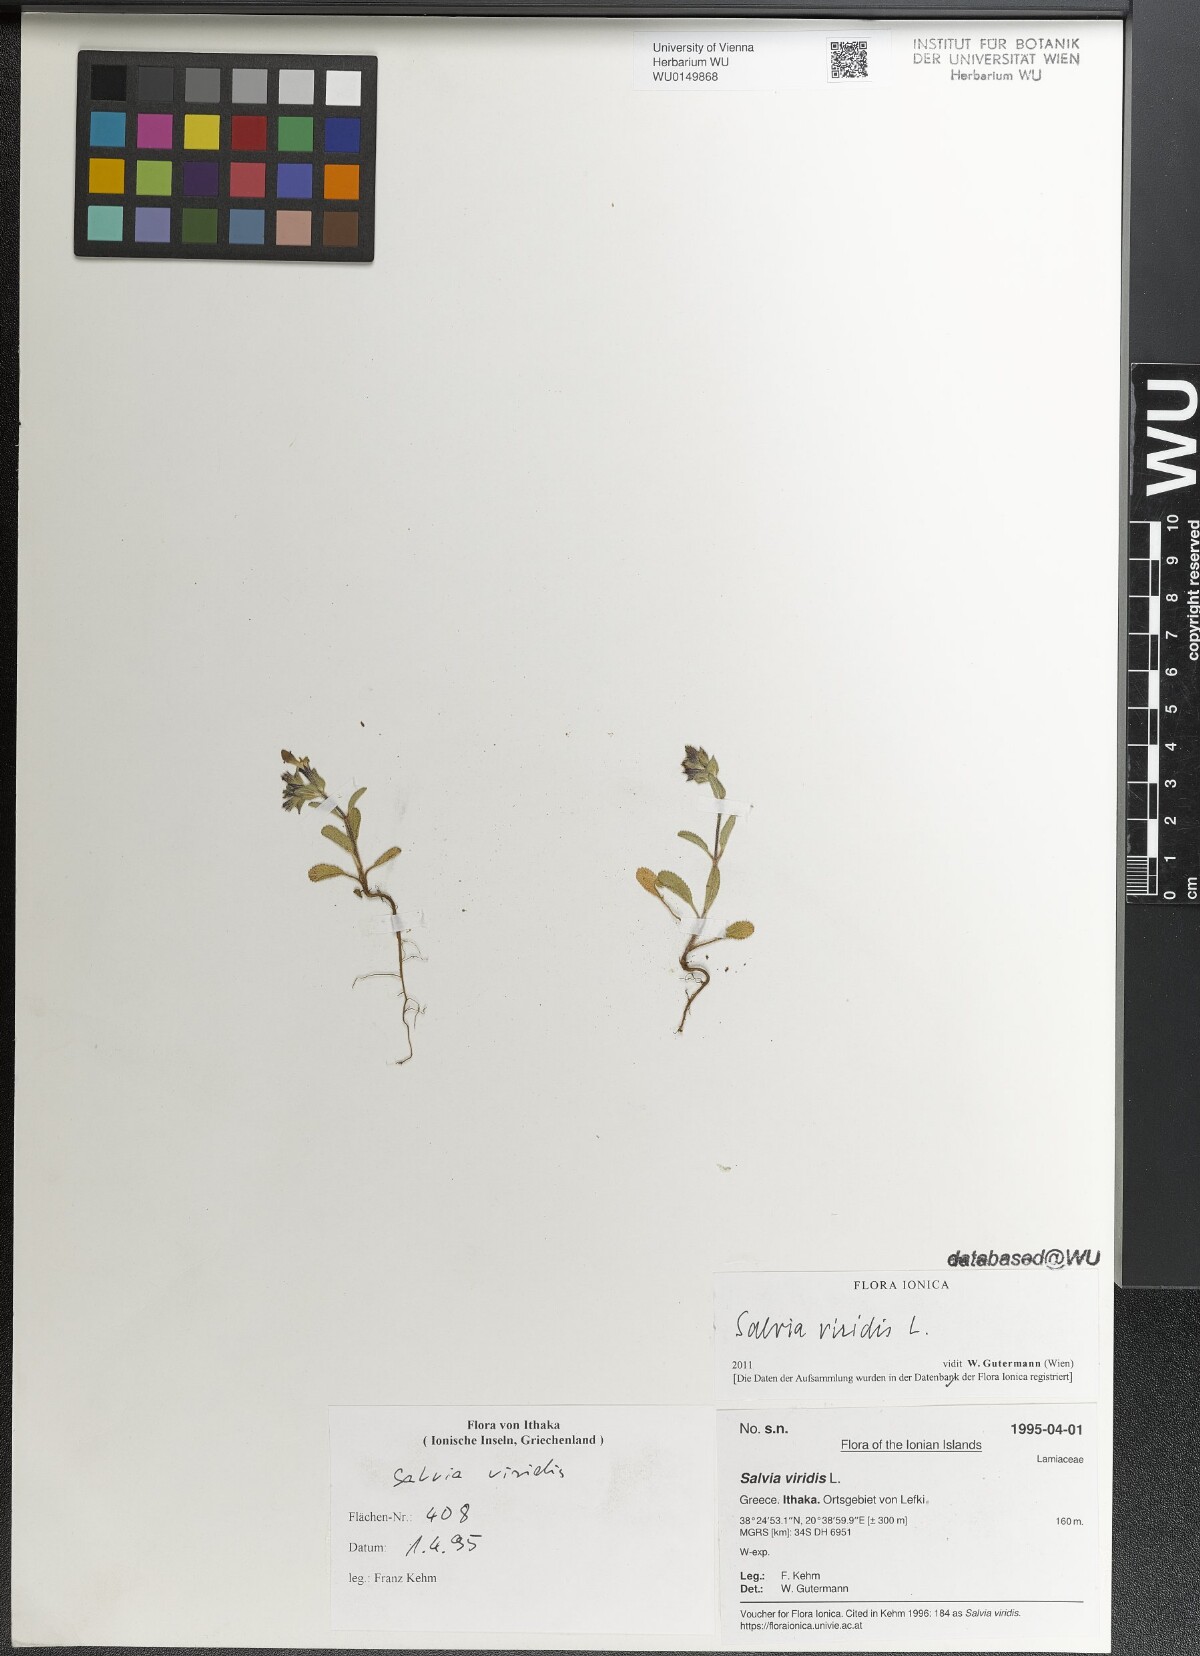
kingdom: Plantae
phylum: Tracheophyta
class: Magnoliopsida
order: Lamiales
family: Lamiaceae
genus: Salvia
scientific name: Salvia viridis
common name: Annual clary
